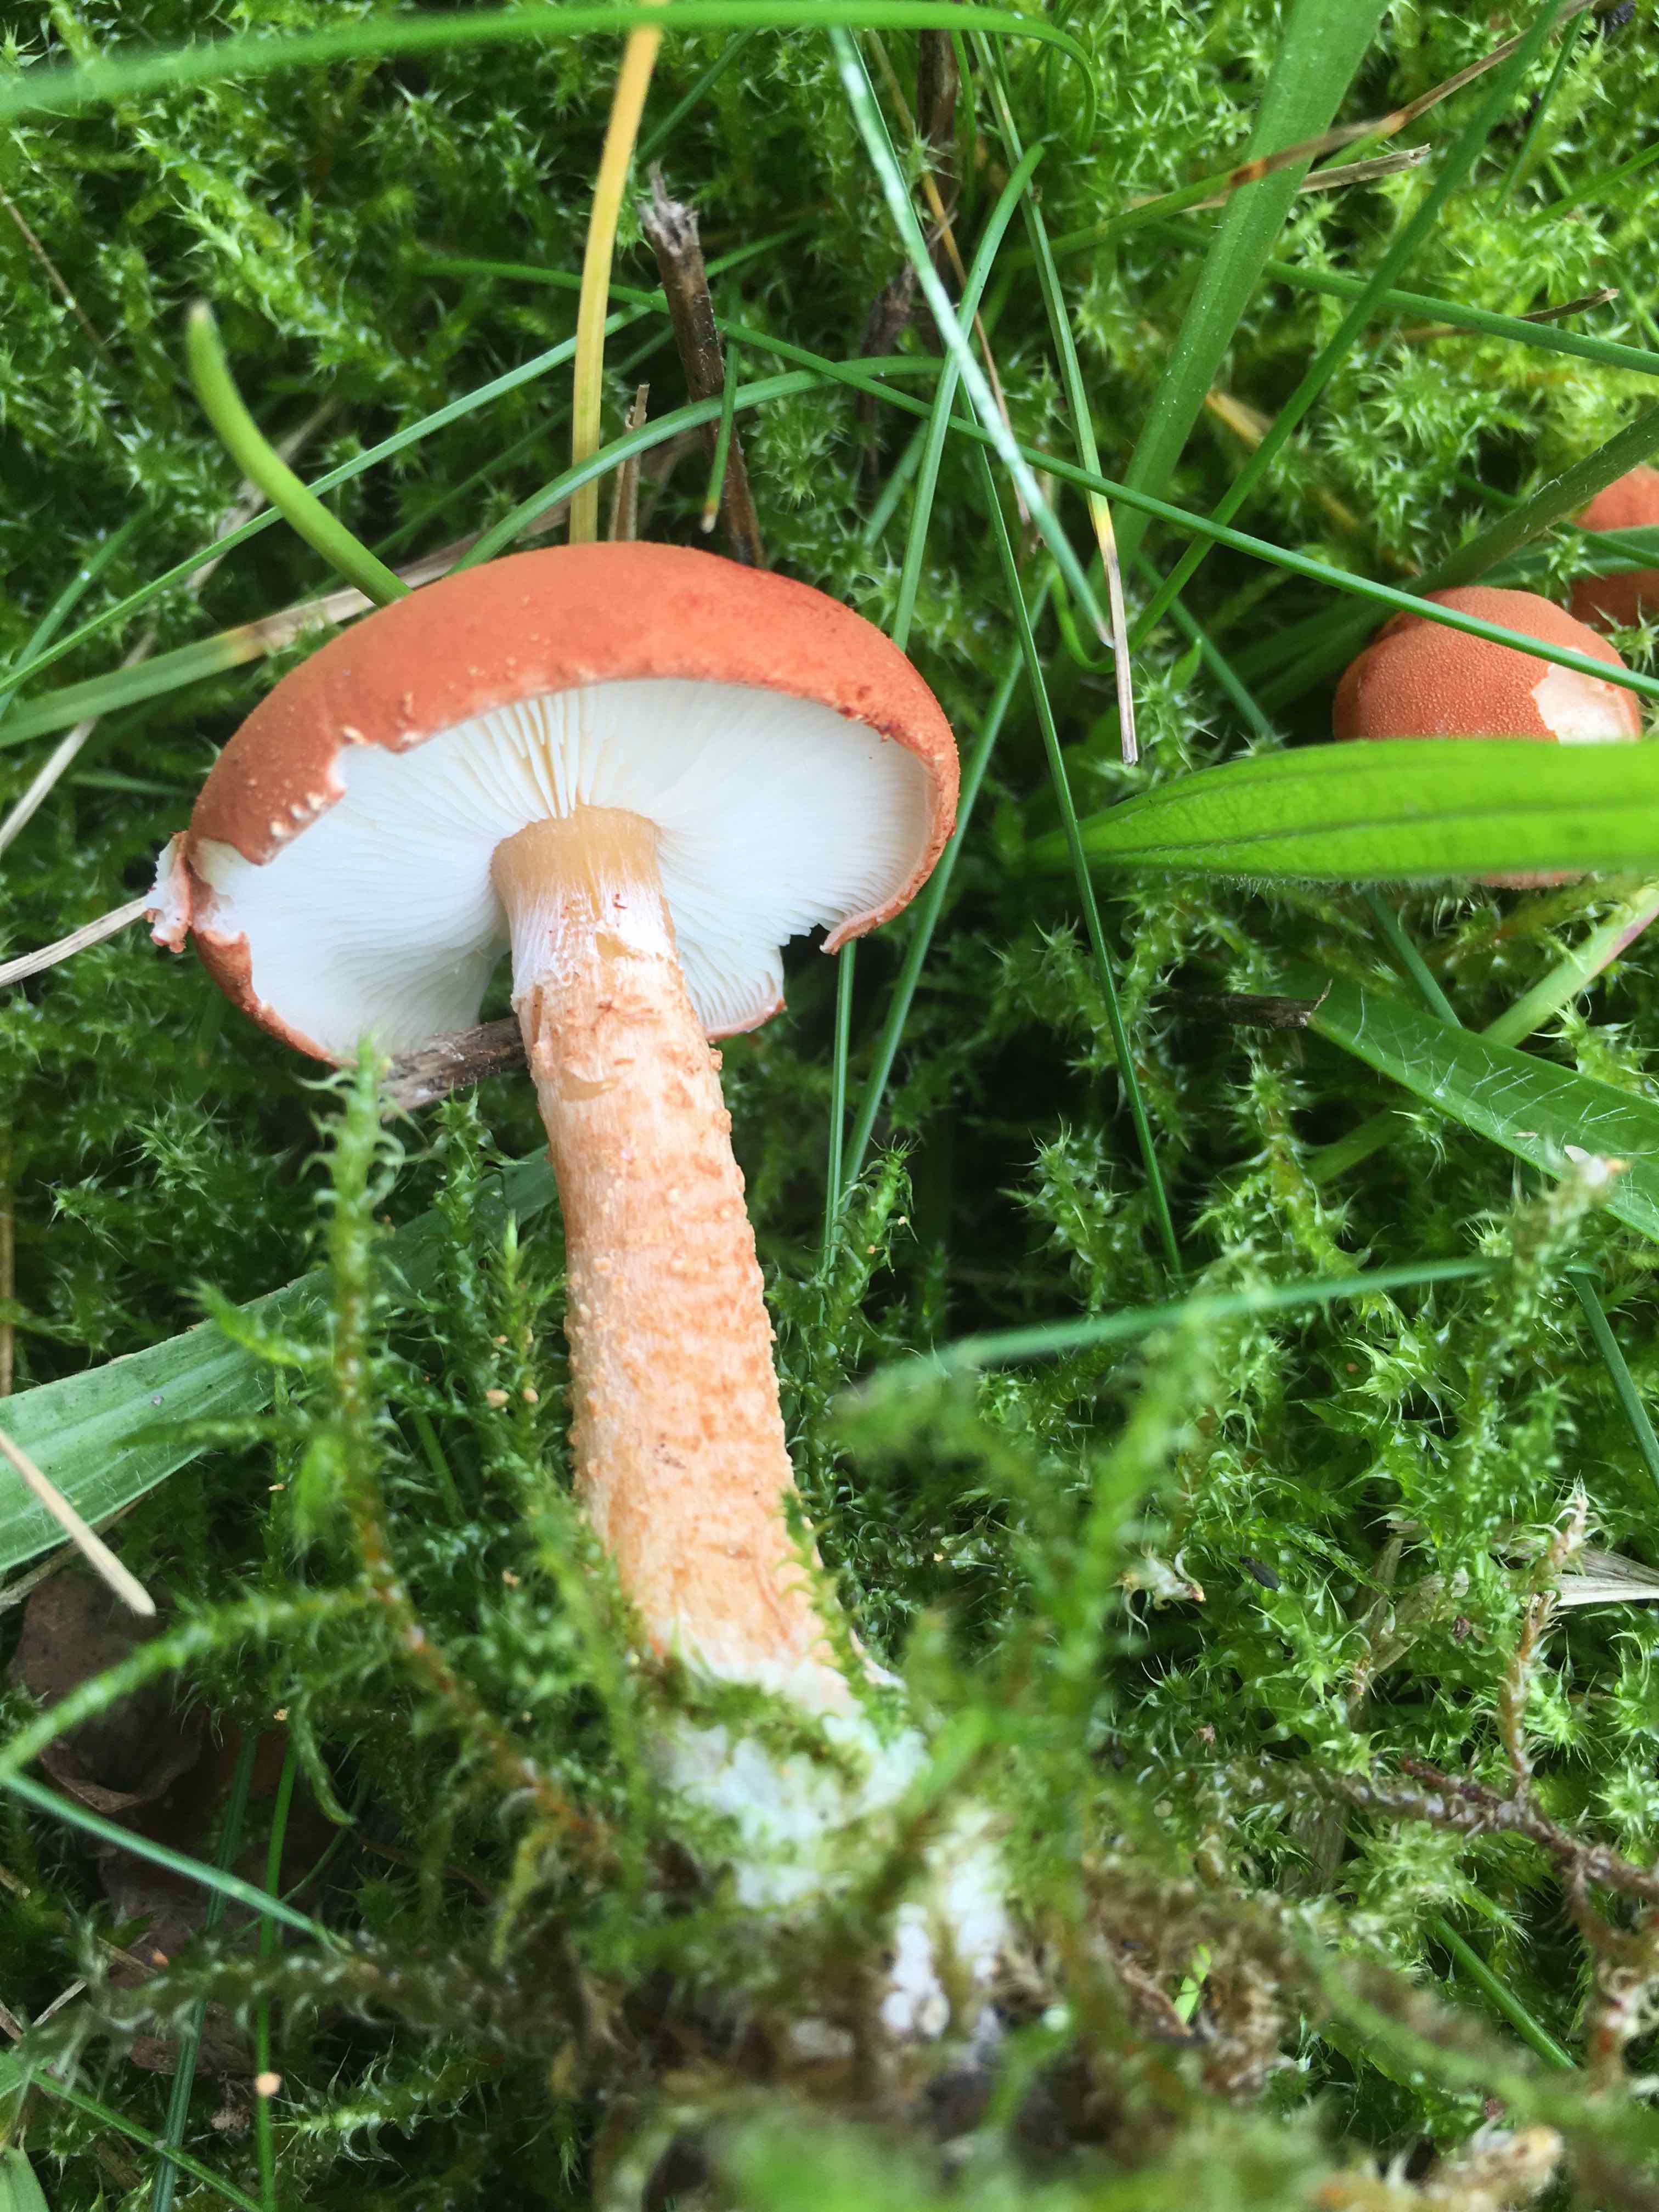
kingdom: Fungi
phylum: Basidiomycota
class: Agaricomycetes
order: Agaricales
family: Agaricaceae
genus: Cystodermella
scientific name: Cystodermella
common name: grynhat
